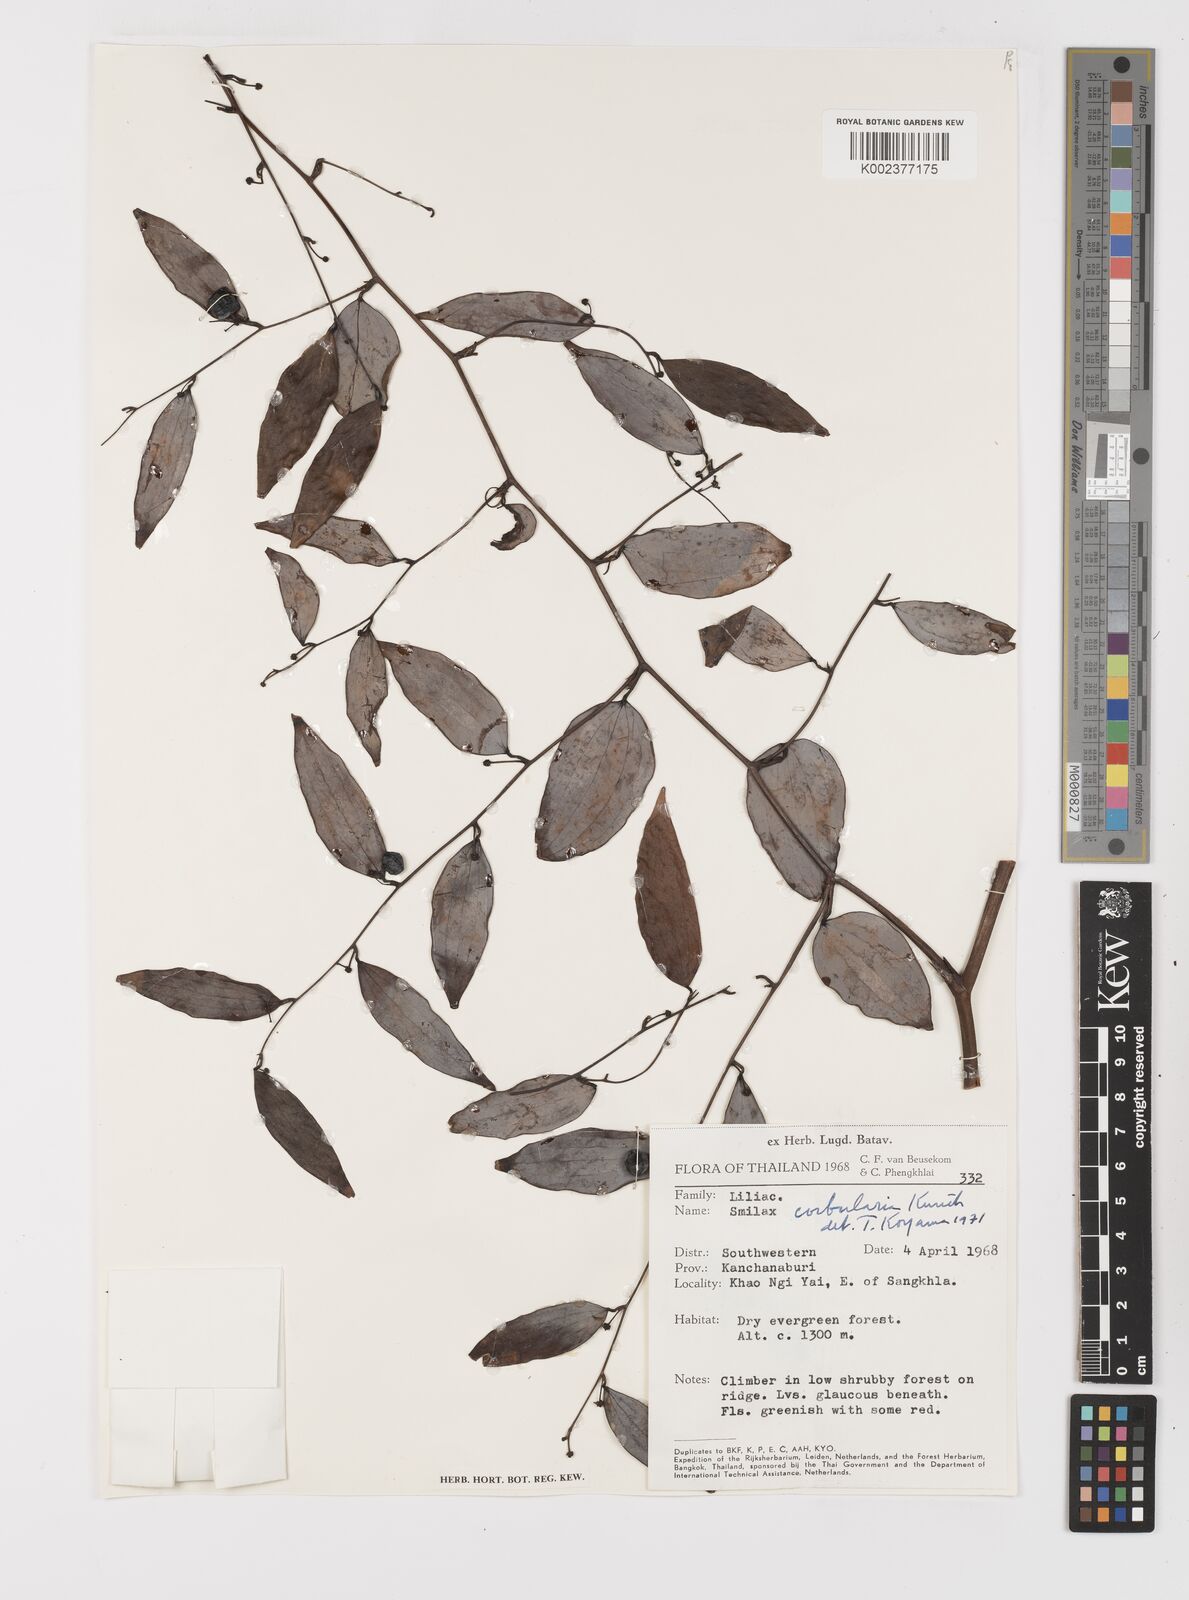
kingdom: Plantae
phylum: Tracheophyta
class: Liliopsida
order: Liliales
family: Smilacaceae
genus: Smilax
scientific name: Smilax corbularia
